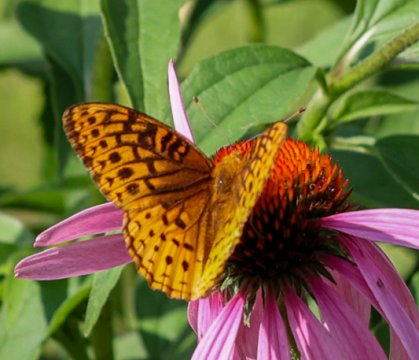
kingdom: Animalia
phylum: Arthropoda
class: Insecta
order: Lepidoptera
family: Nymphalidae
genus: Speyeria
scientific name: Speyeria cybele
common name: Great Spangled Fritillary
